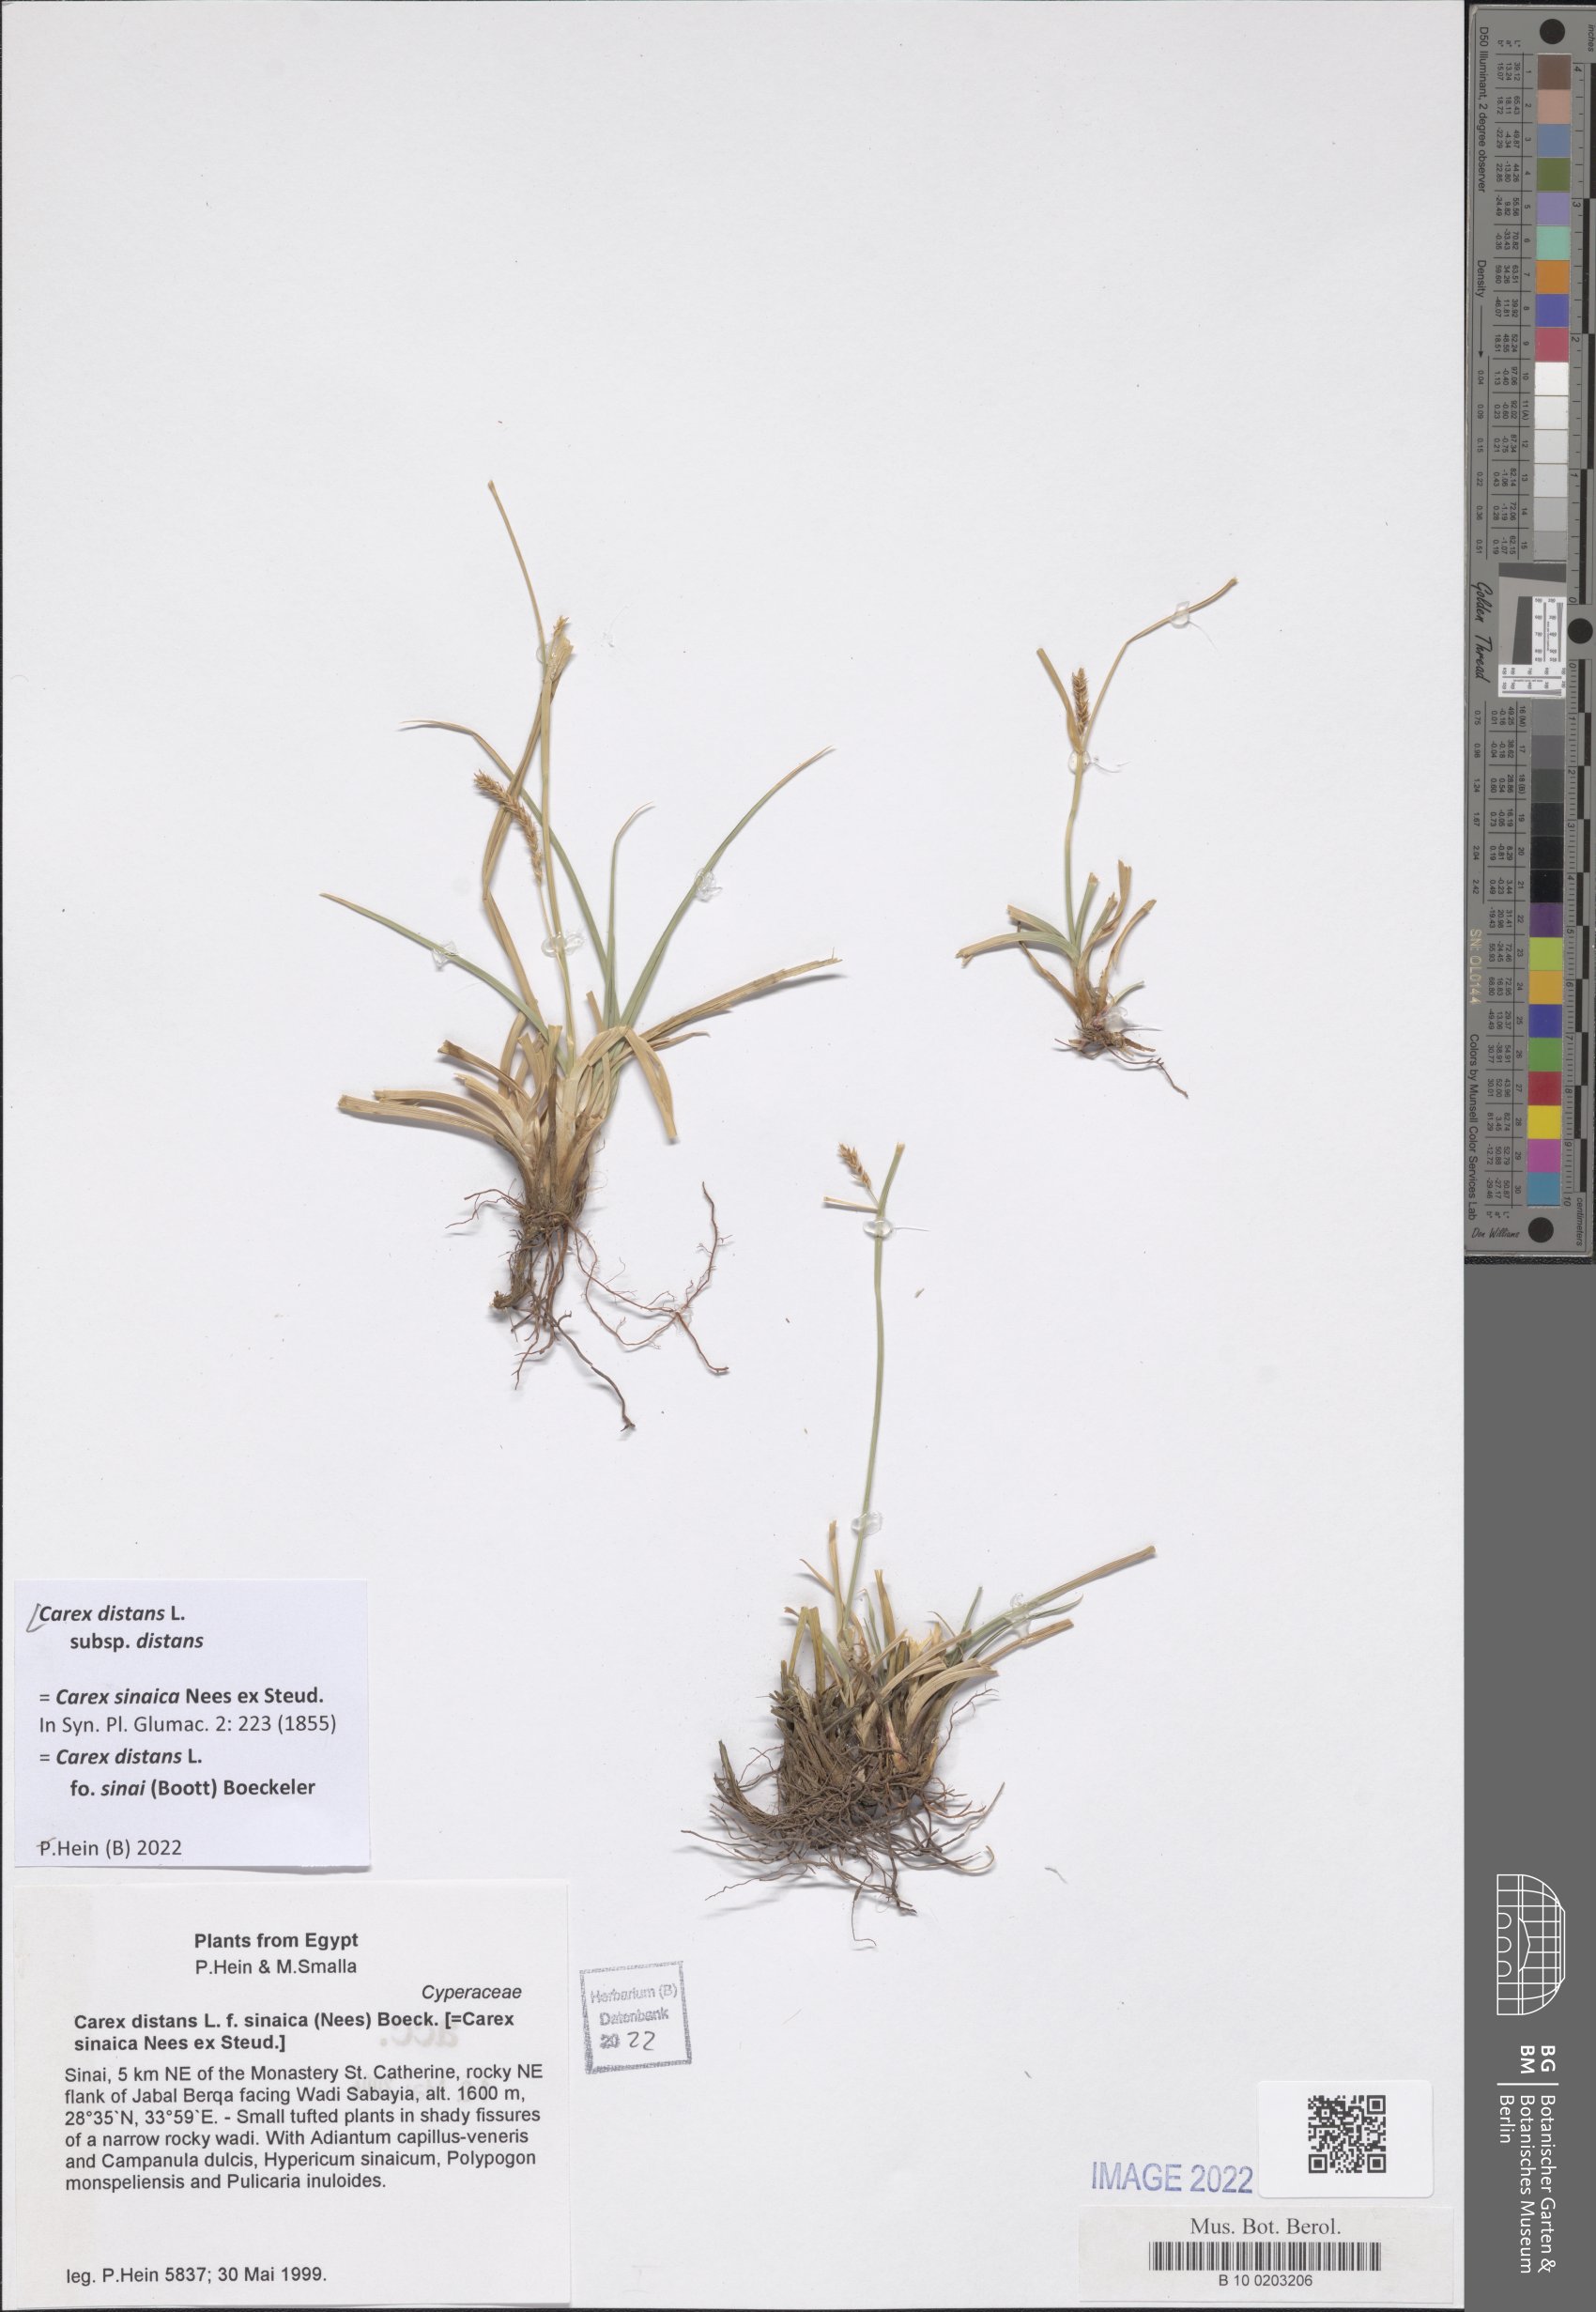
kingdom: Plantae
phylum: Tracheophyta
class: Liliopsida
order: Poales
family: Cyperaceae
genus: Carex
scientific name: Carex distans
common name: Distant sedge
